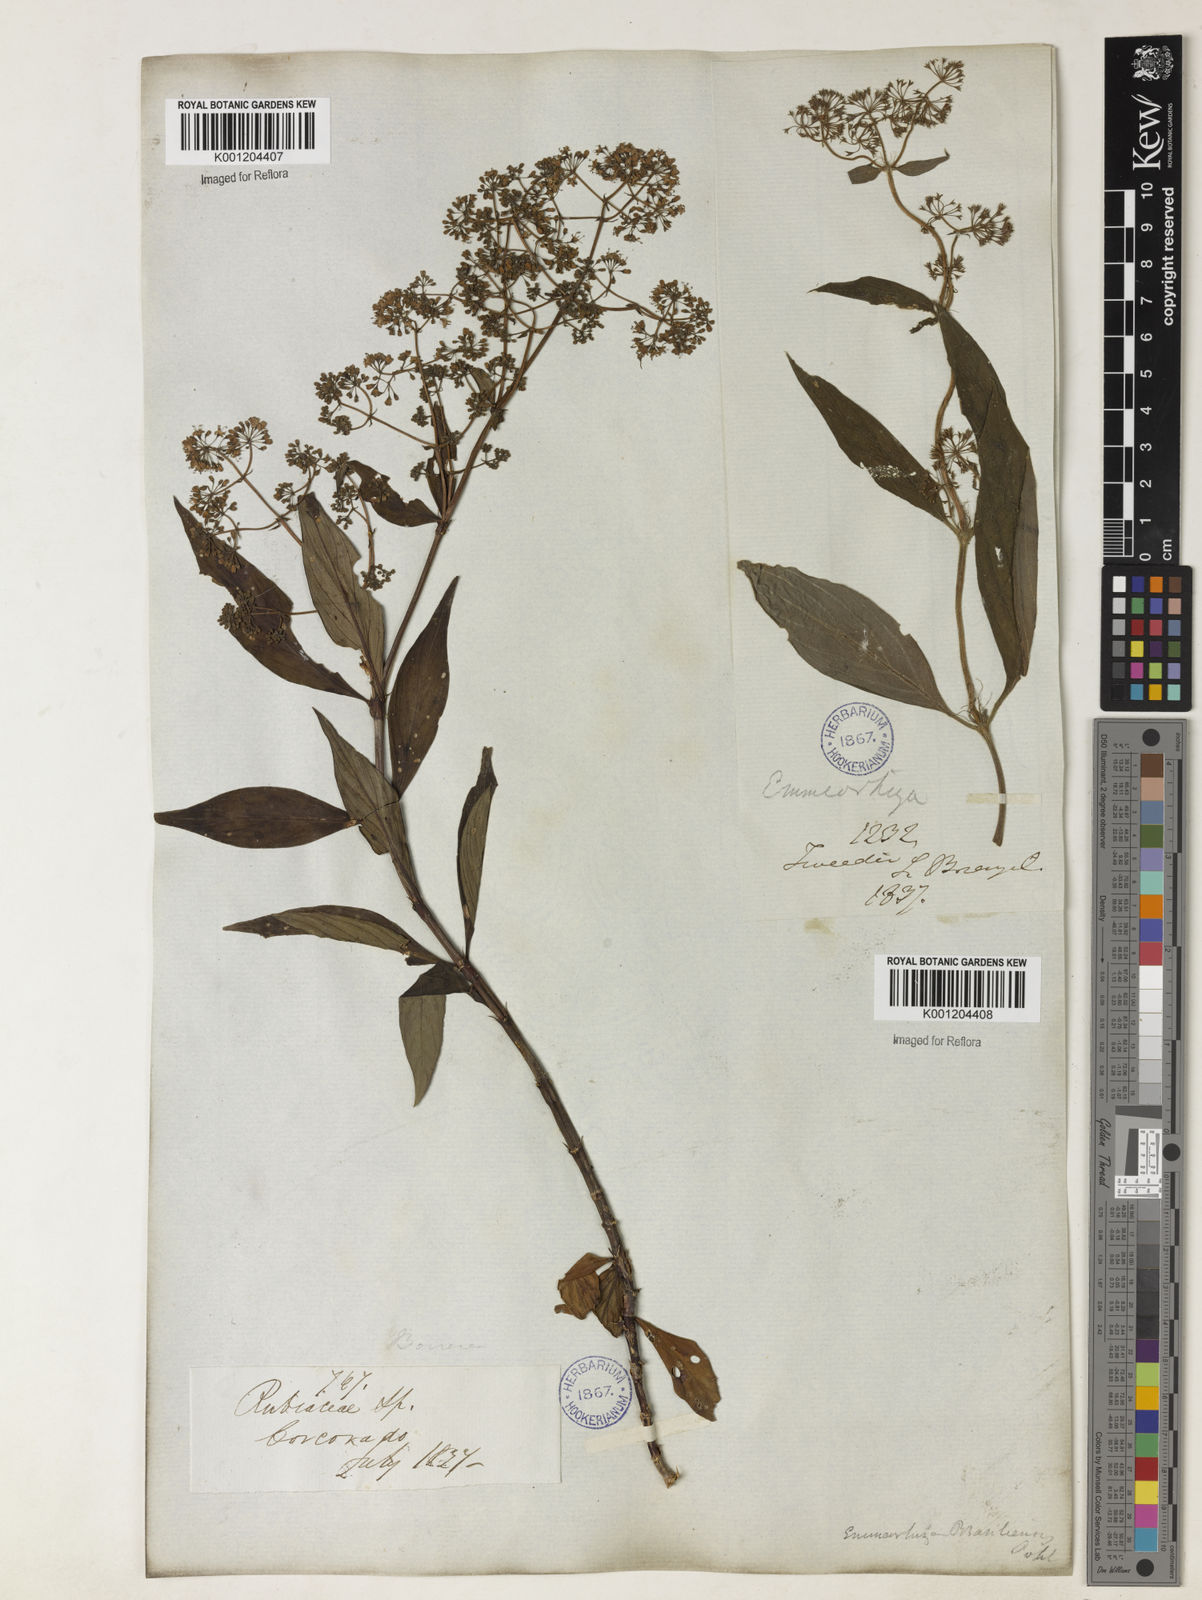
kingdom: Plantae
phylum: Tracheophyta
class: Magnoliopsida
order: Gentianales
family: Rubiaceae
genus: Emmeorhiza
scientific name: Emmeorhiza
